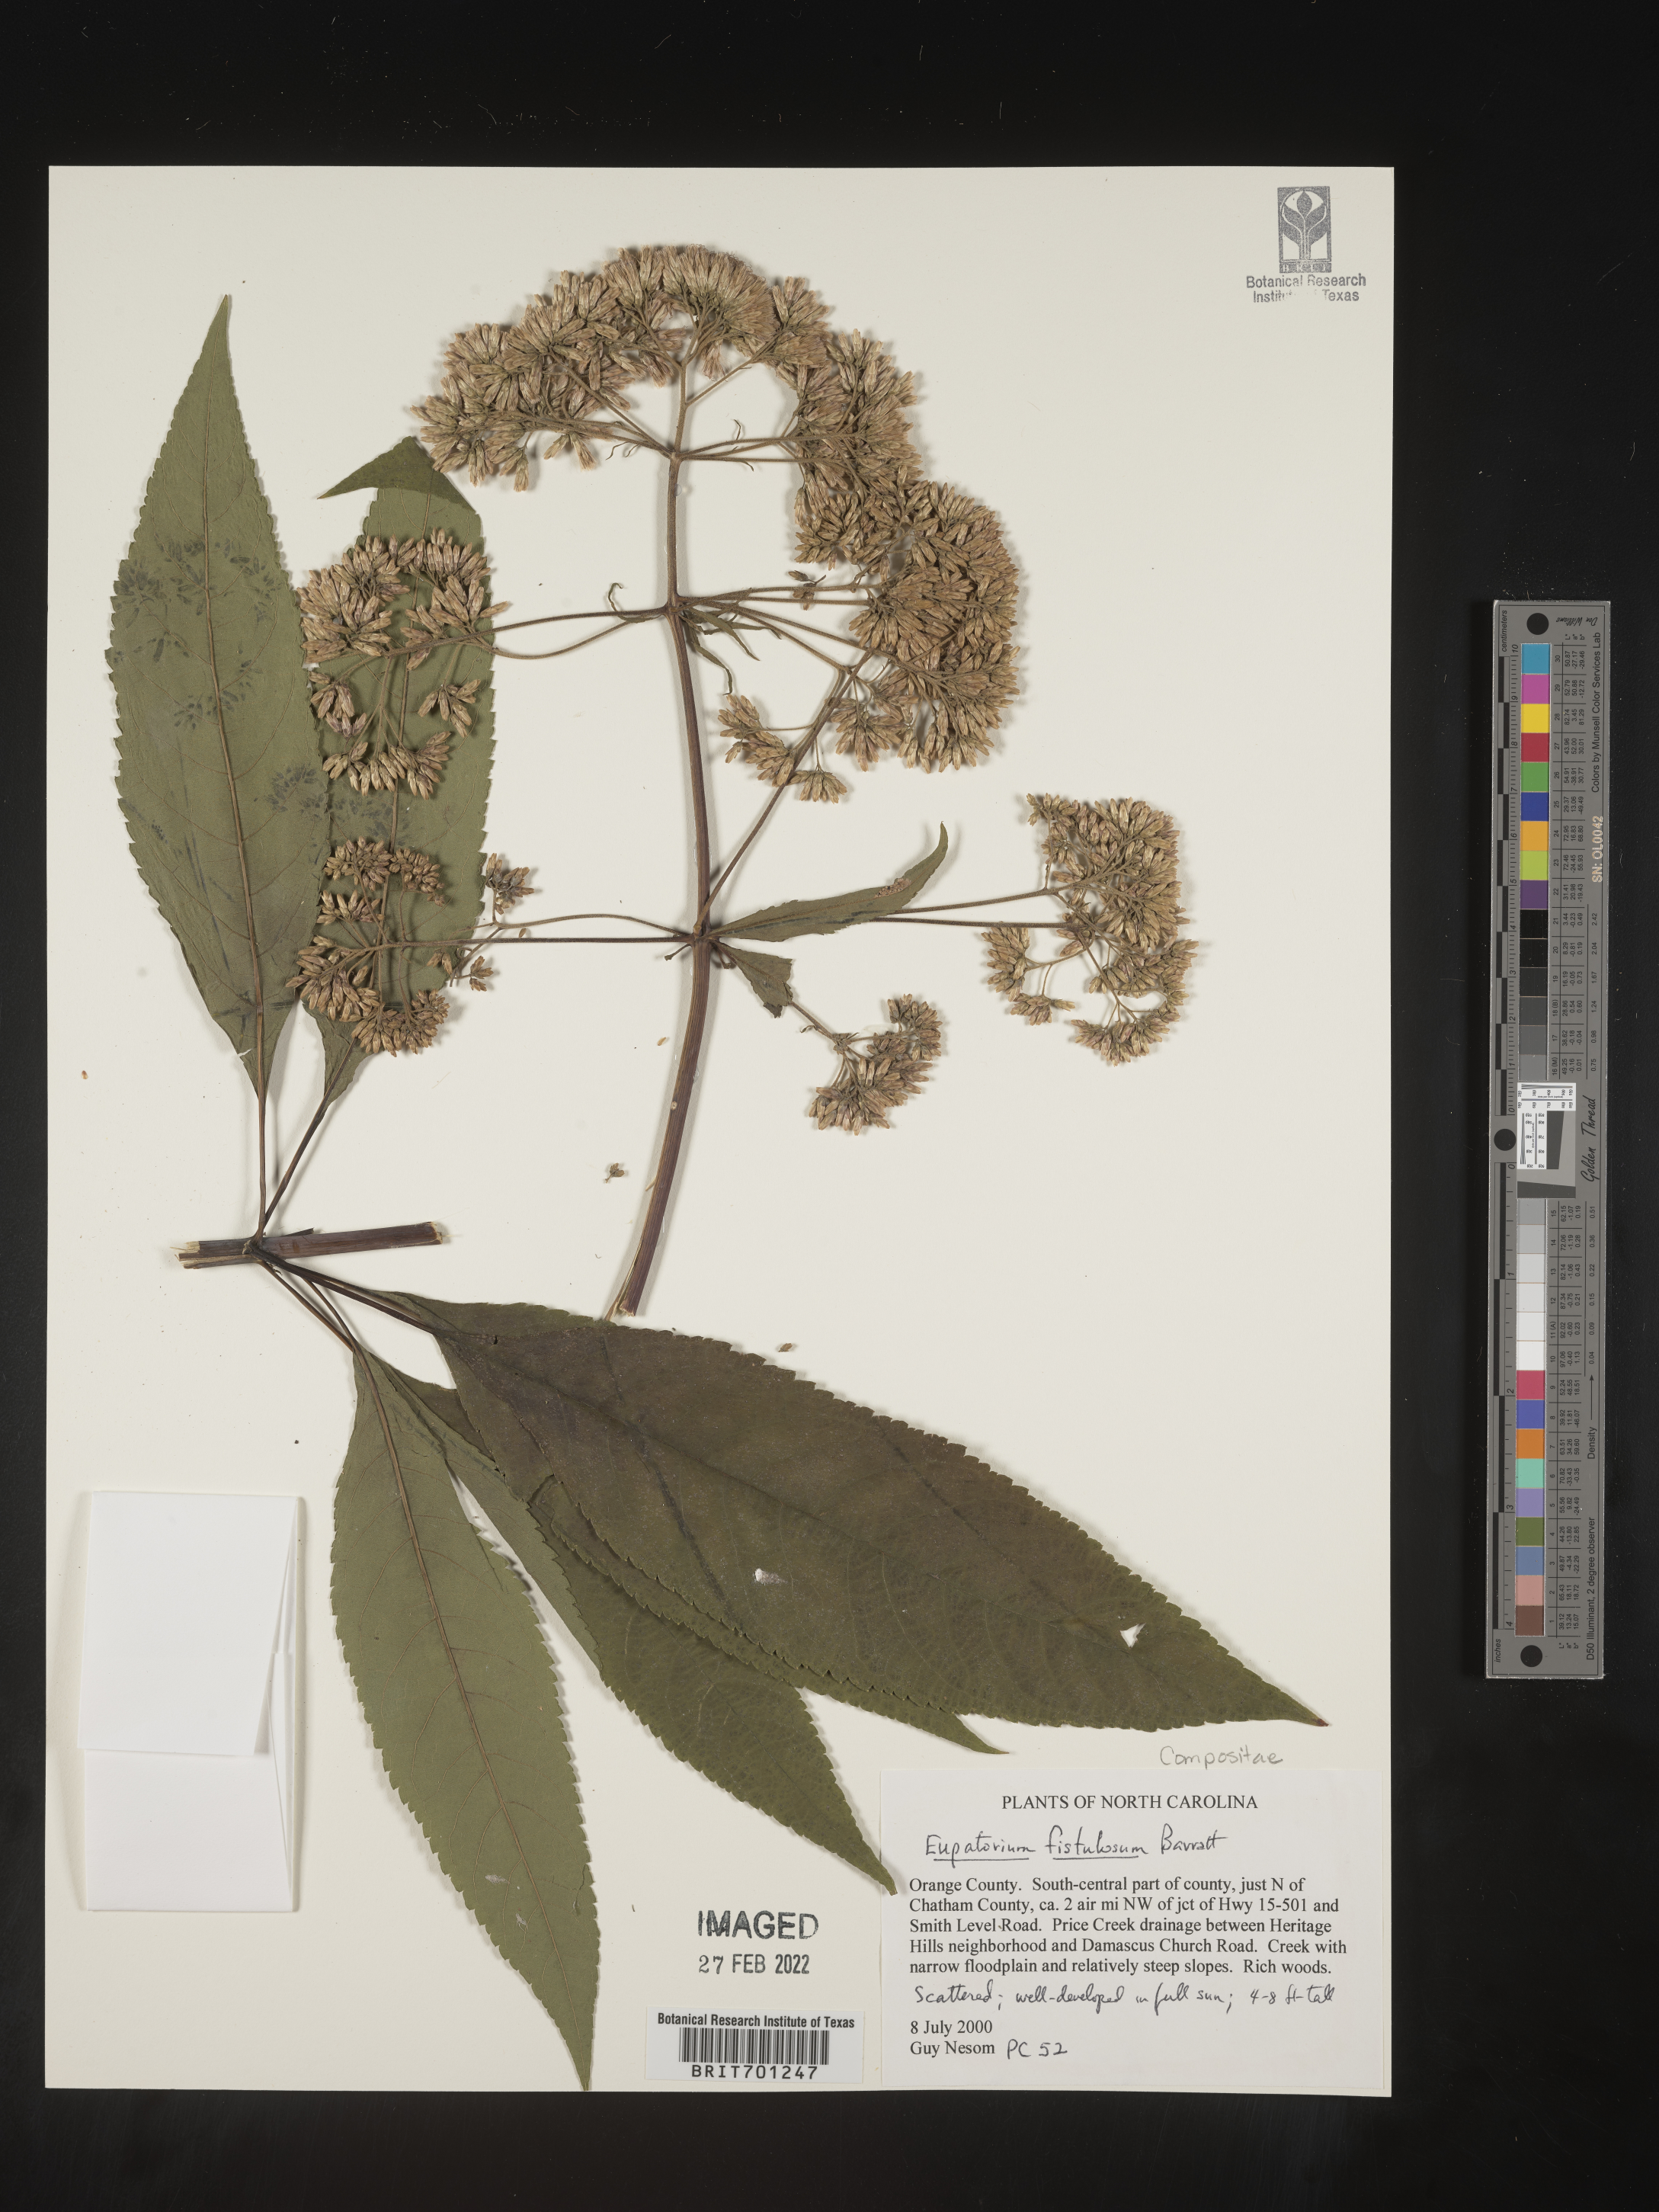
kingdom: Plantae
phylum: Tracheophyta
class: Magnoliopsida
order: Asterales
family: Asteraceae
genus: Eutrochium
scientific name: Eutrochium fistulosum
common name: Trumpetweed
